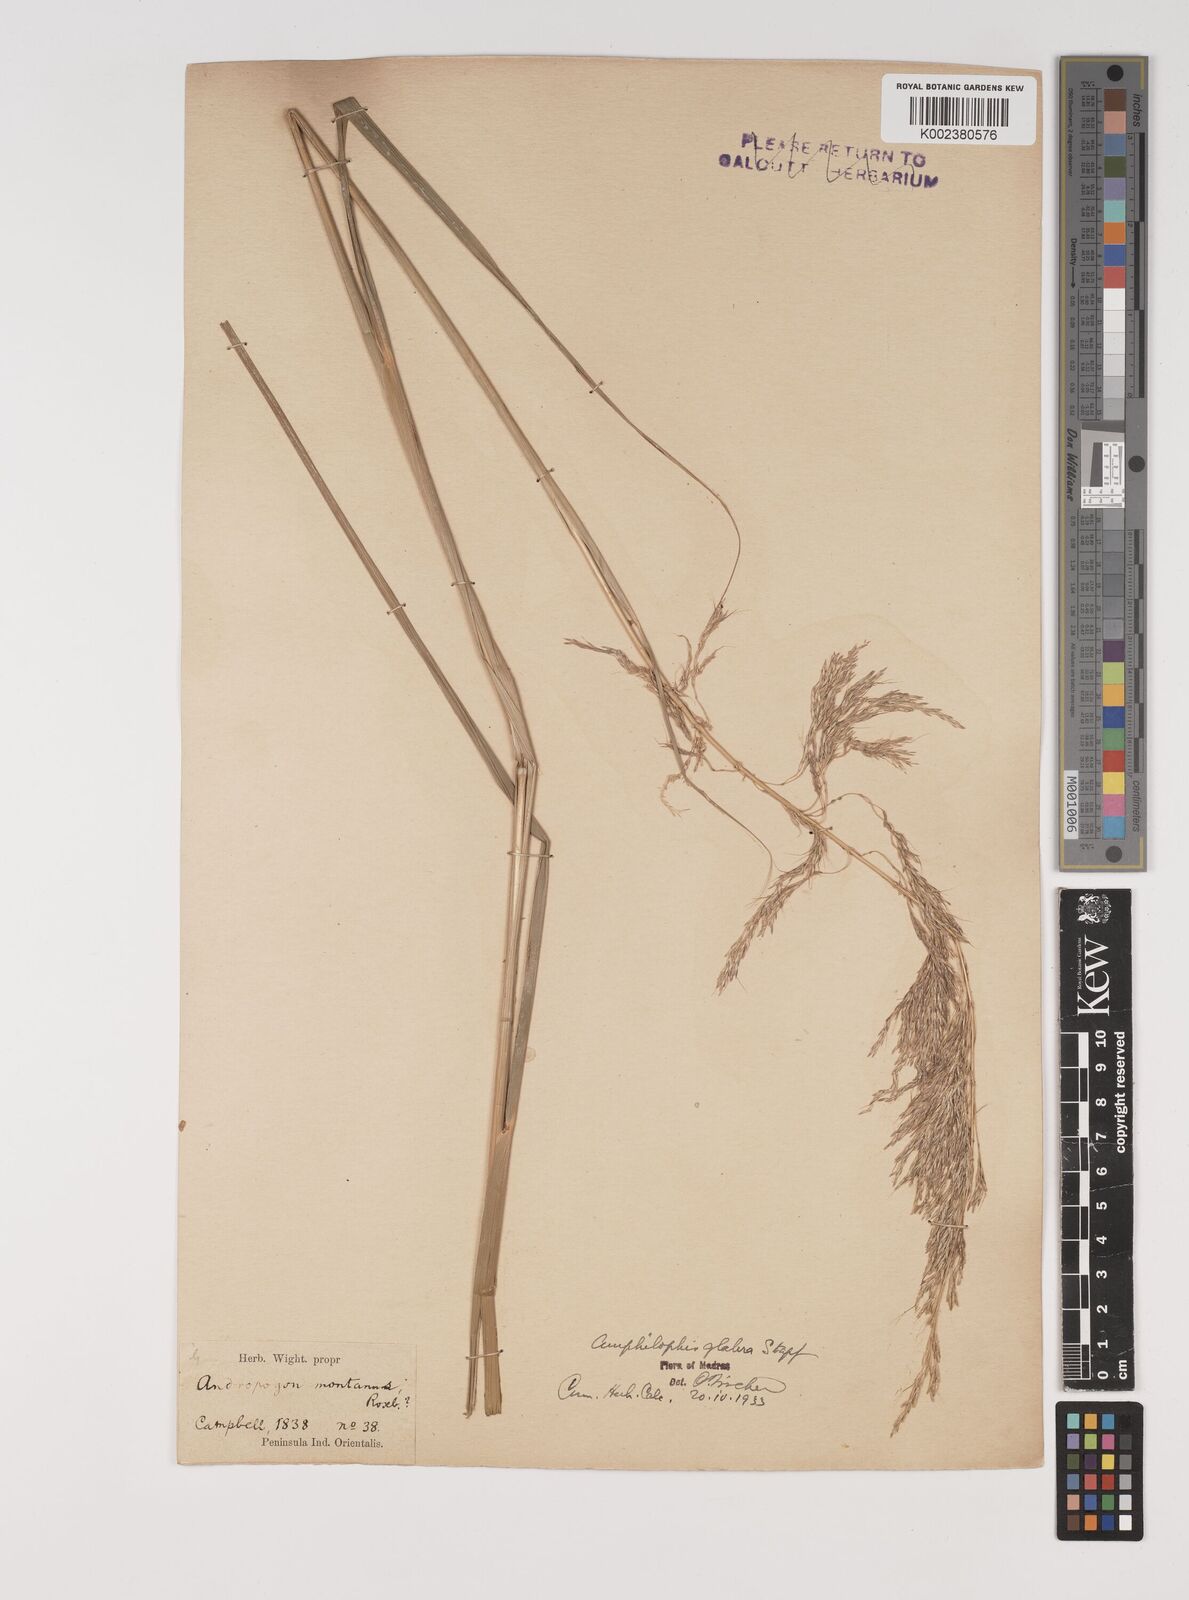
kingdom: Plantae
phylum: Tracheophyta
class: Liliopsida
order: Poales
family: Poaceae
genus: Bothriochloa
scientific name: Bothriochloa bladhii
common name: Caucasian bluestem
